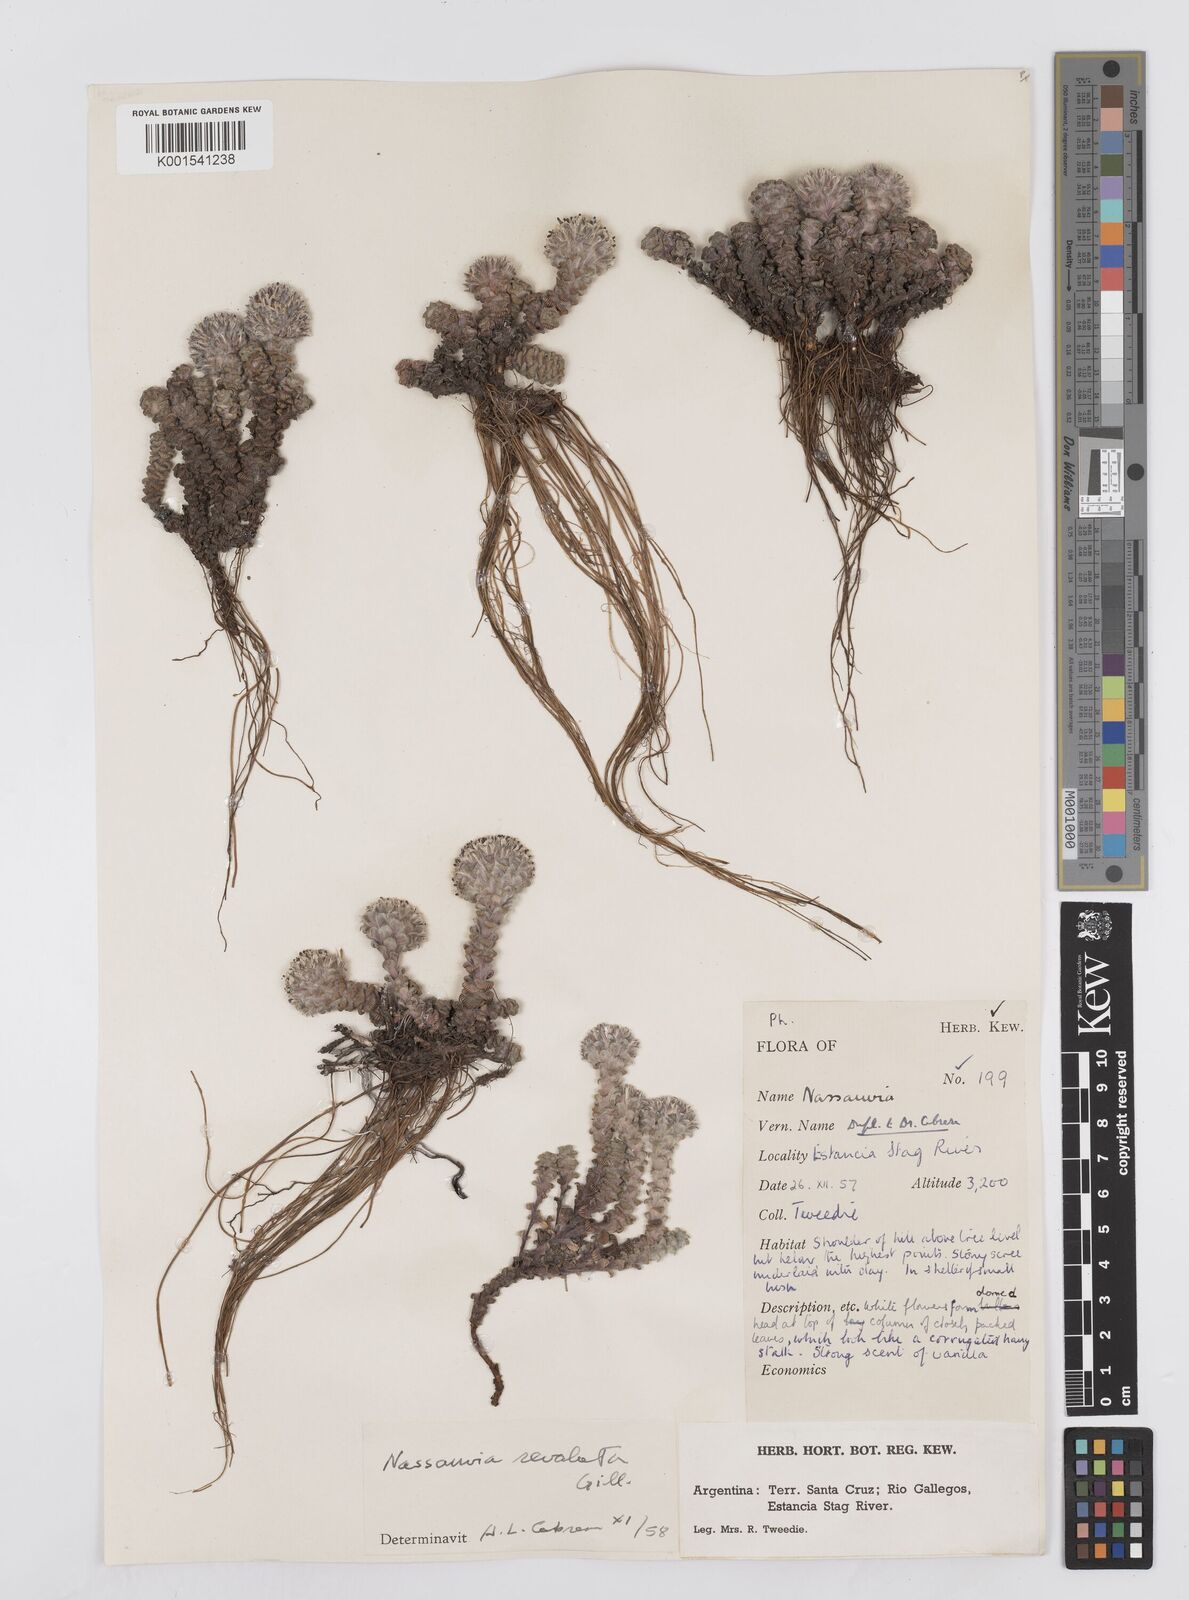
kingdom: Plantae
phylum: Tracheophyta
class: Magnoliopsida
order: Asterales
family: Asteraceae
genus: Nassauvia
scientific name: Nassauvia revoluta
